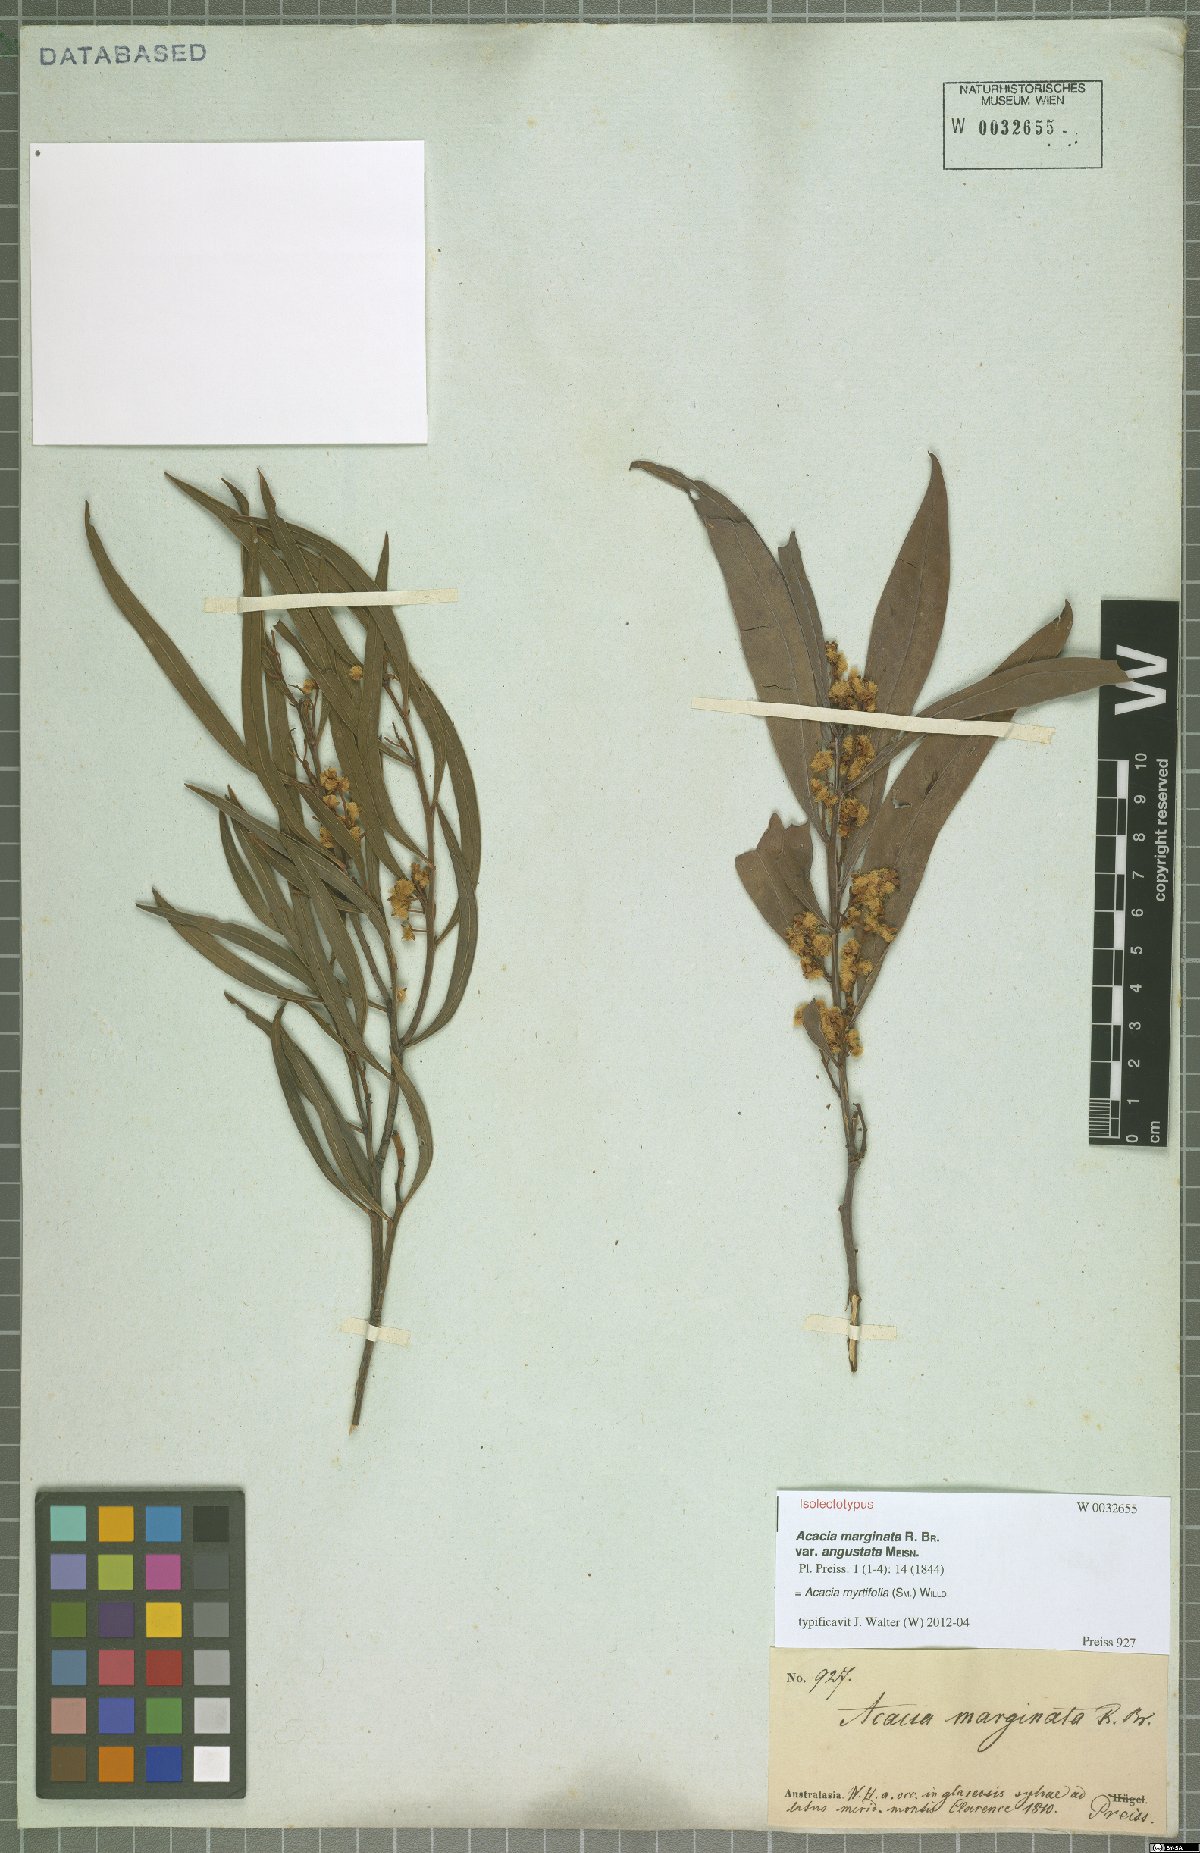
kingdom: Plantae
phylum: Tracheophyta
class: Magnoliopsida
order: Fabales
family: Fabaceae
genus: Acacia
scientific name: Acacia myrtifolia
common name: Myrtle wattle
